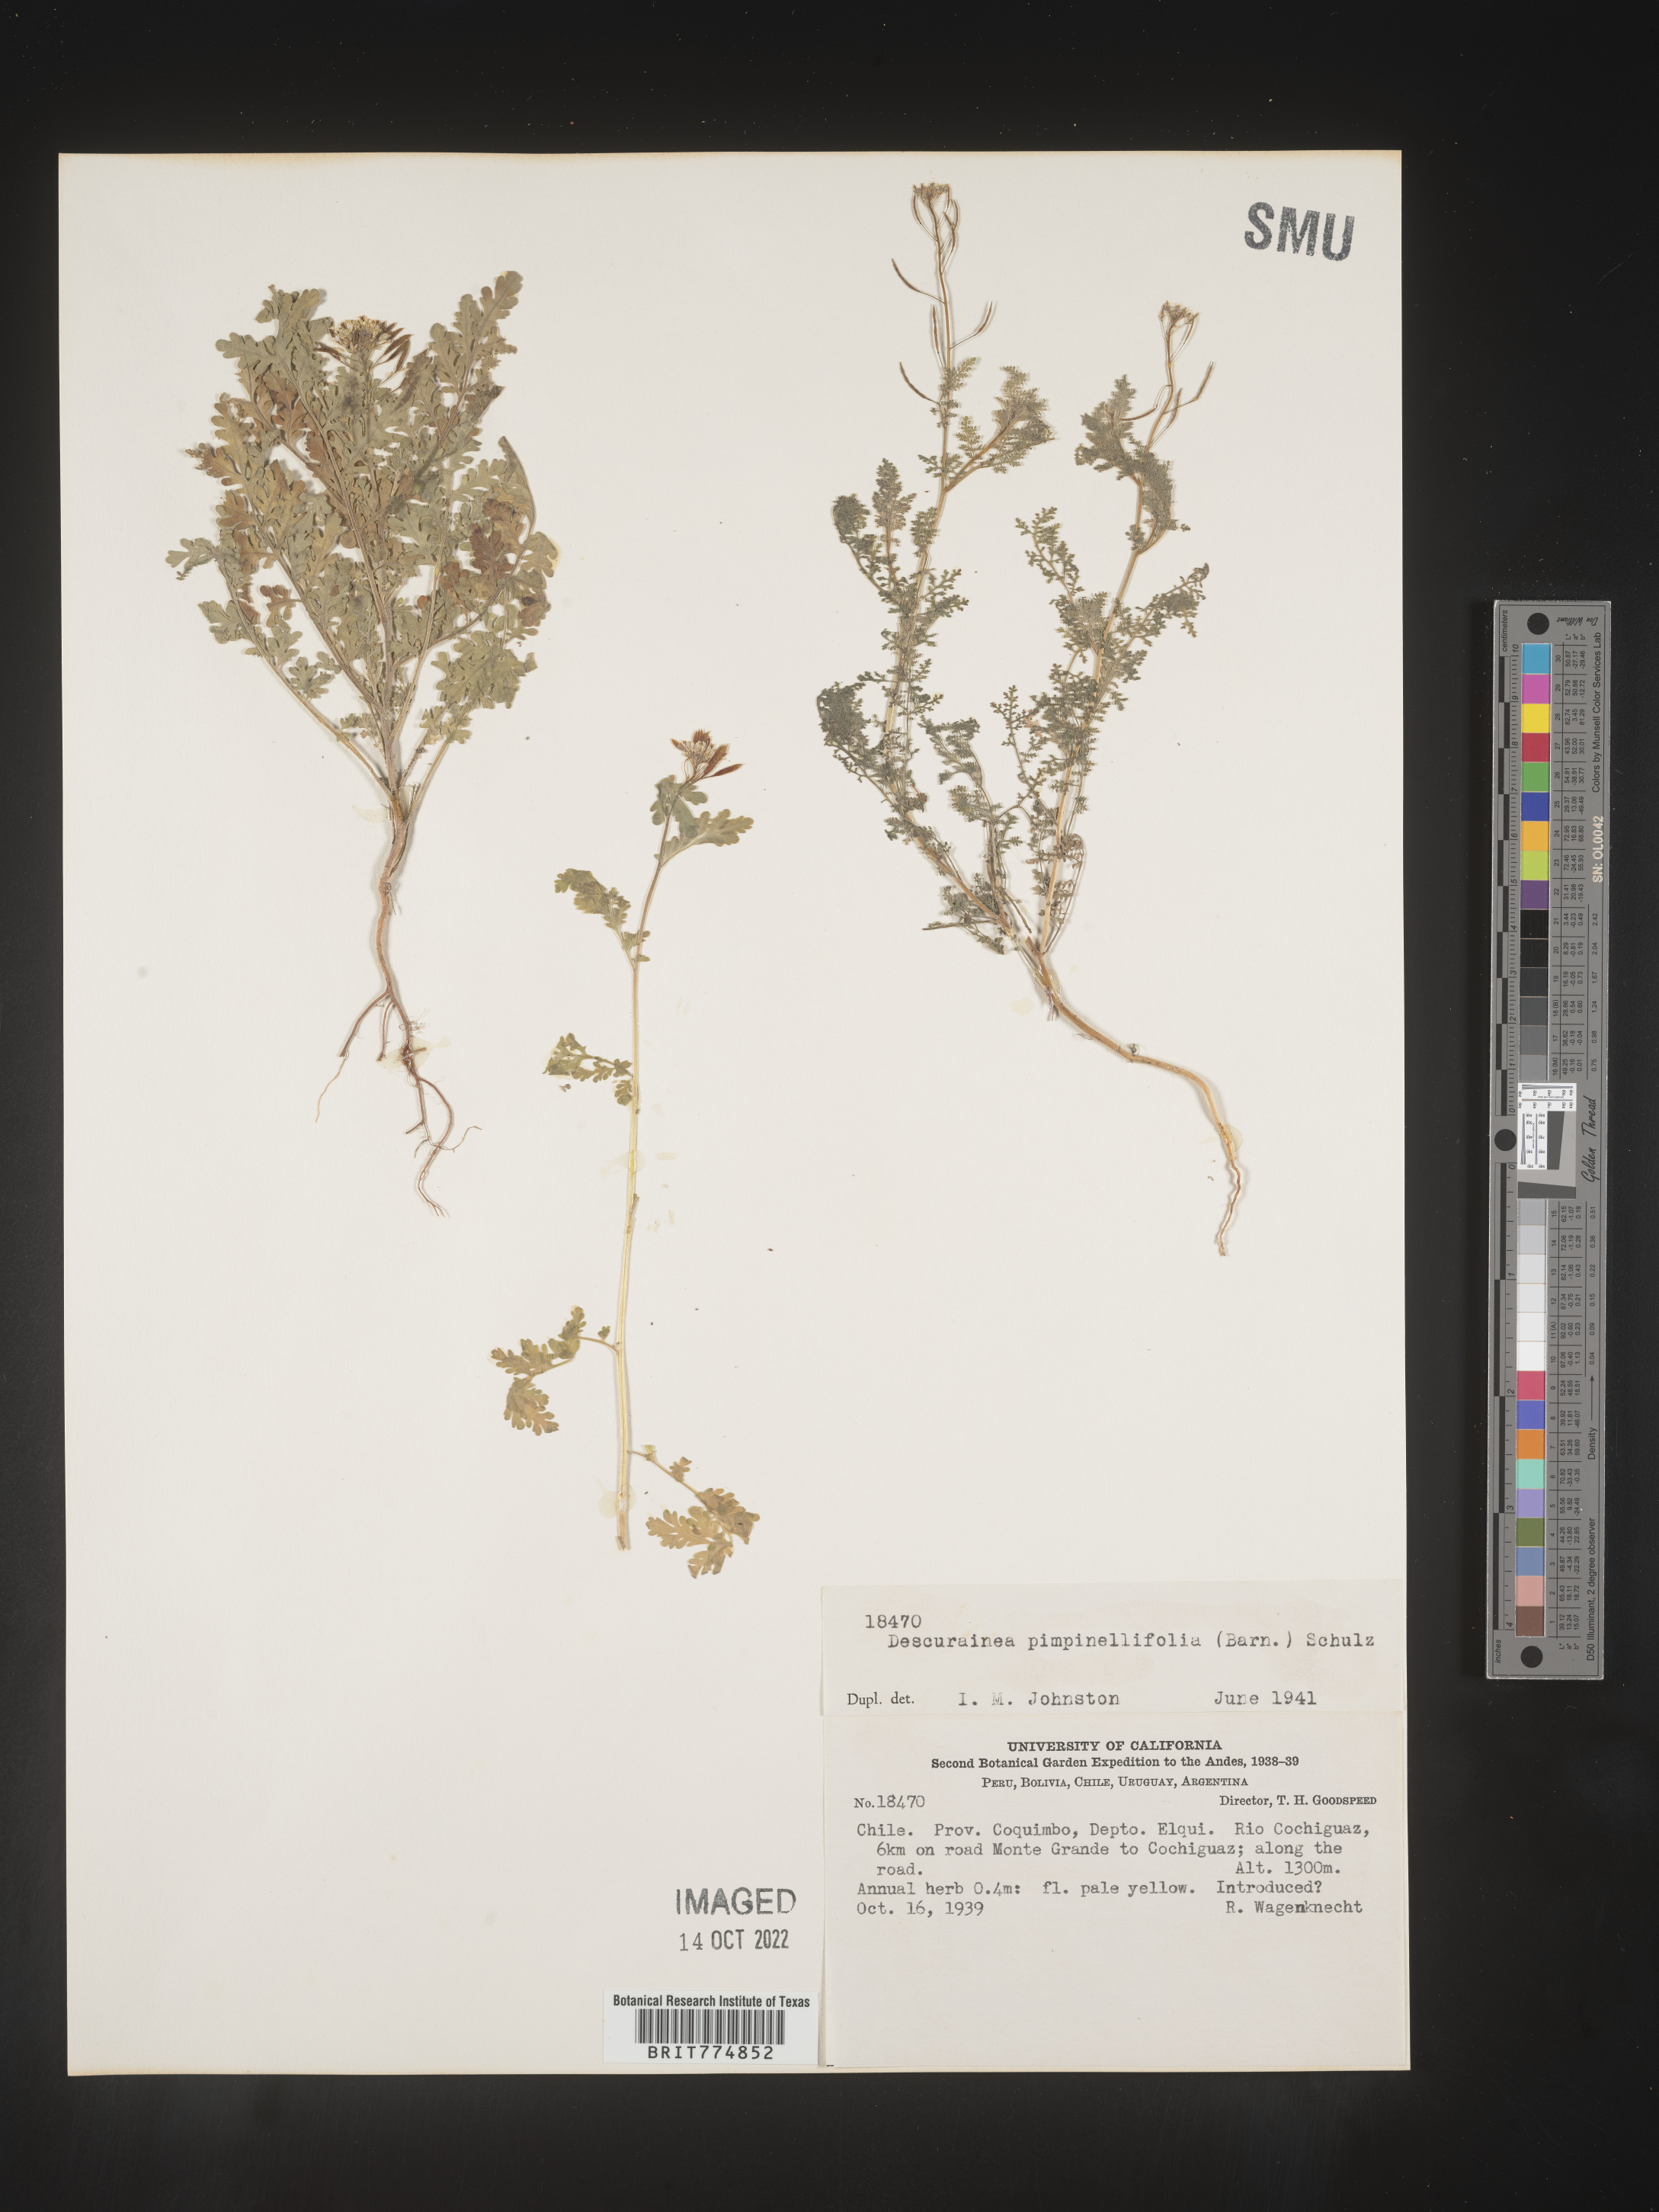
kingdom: Plantae
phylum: Tracheophyta
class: Magnoliopsida
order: Brassicales
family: Brassicaceae
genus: Descurainia
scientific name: Descurainia
